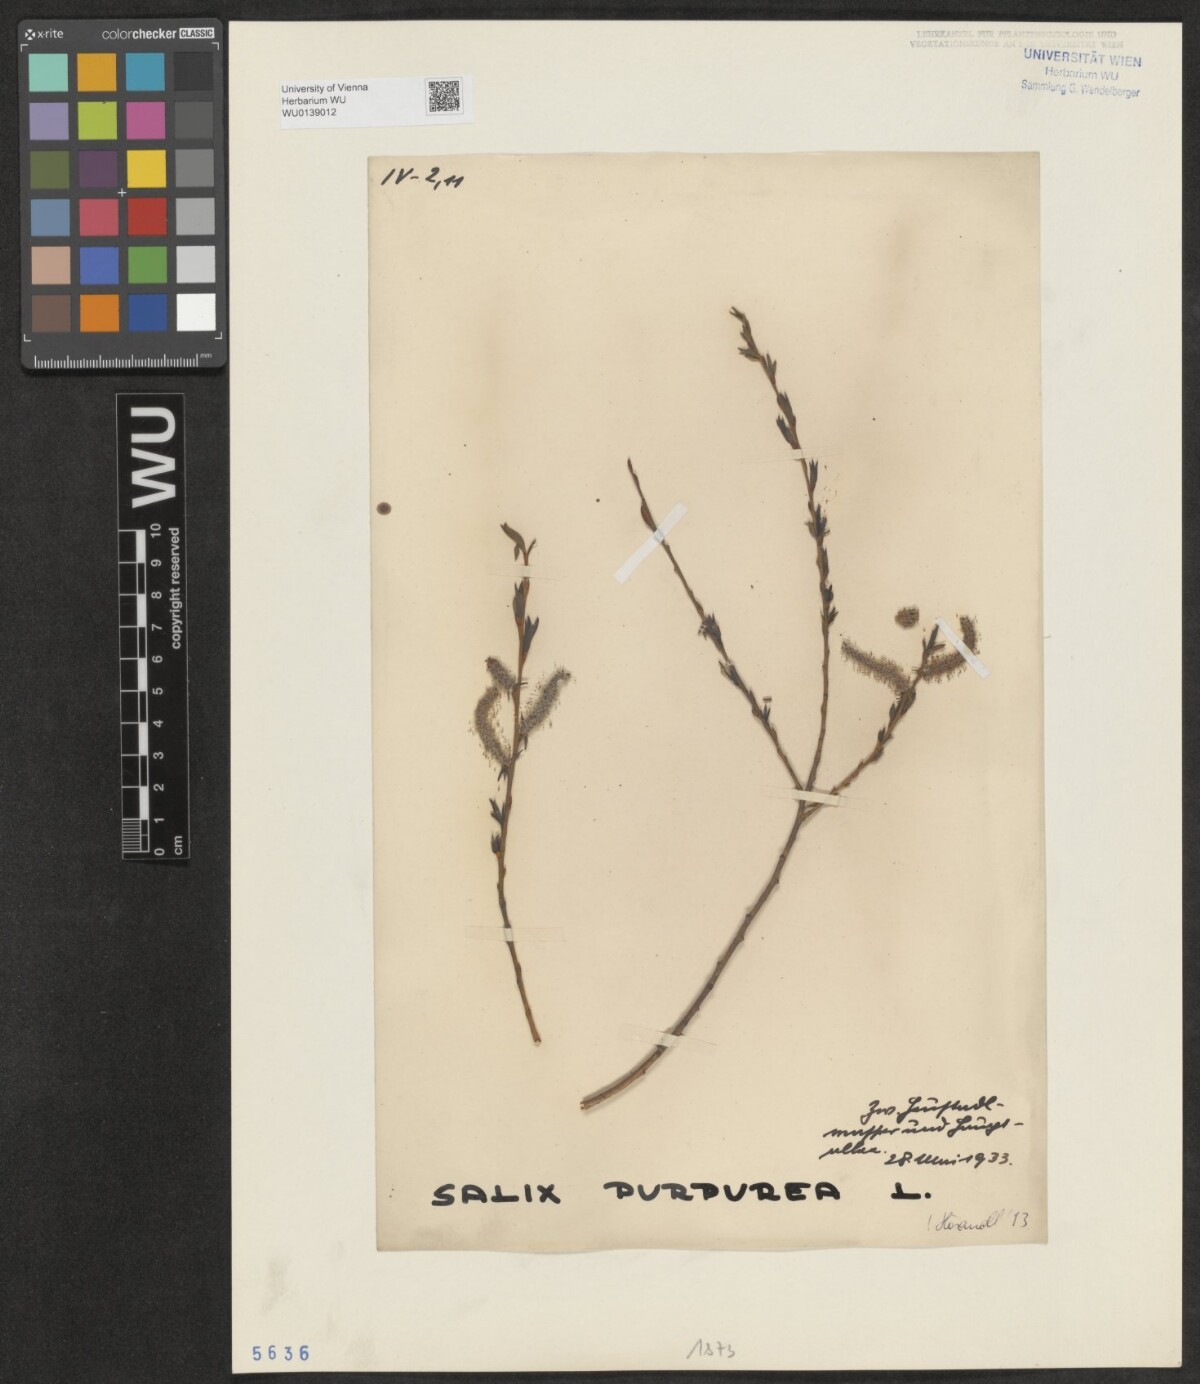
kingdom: Plantae
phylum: Tracheophyta
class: Magnoliopsida
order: Malpighiales
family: Salicaceae
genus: Salix
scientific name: Salix purpurea
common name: Purple willow
